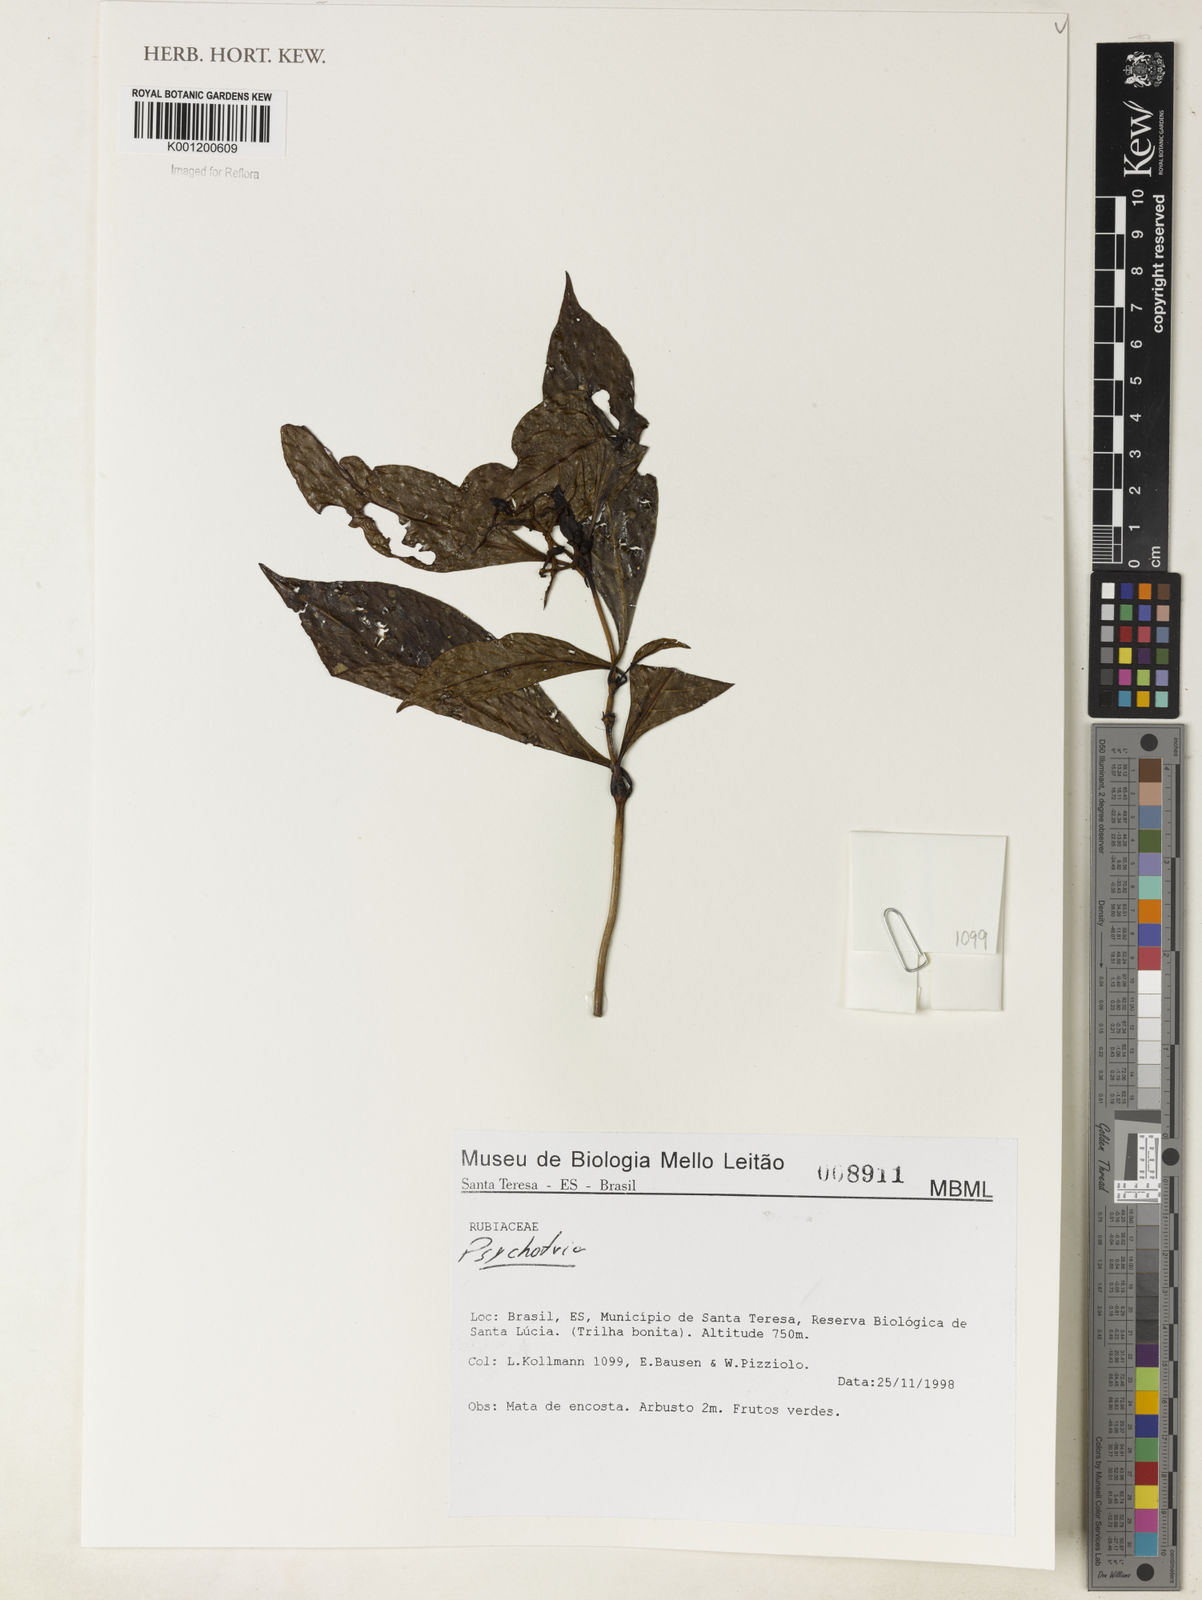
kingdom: Plantae
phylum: Tracheophyta
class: Magnoliopsida
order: Gentianales
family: Rubiaceae
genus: Psychotria
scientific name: Psychotria
